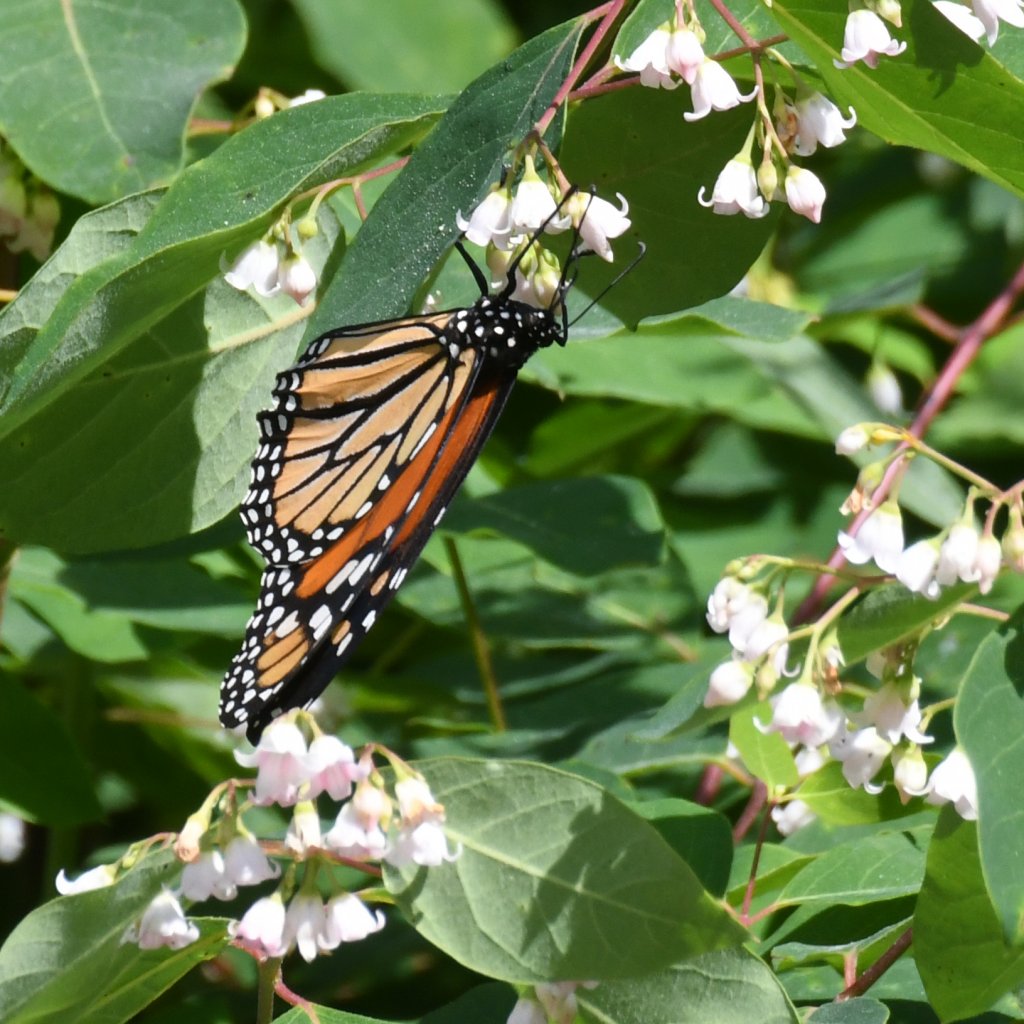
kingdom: Animalia
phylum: Arthropoda
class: Insecta
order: Lepidoptera
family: Nymphalidae
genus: Danaus
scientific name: Danaus plexippus
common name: Monarch
